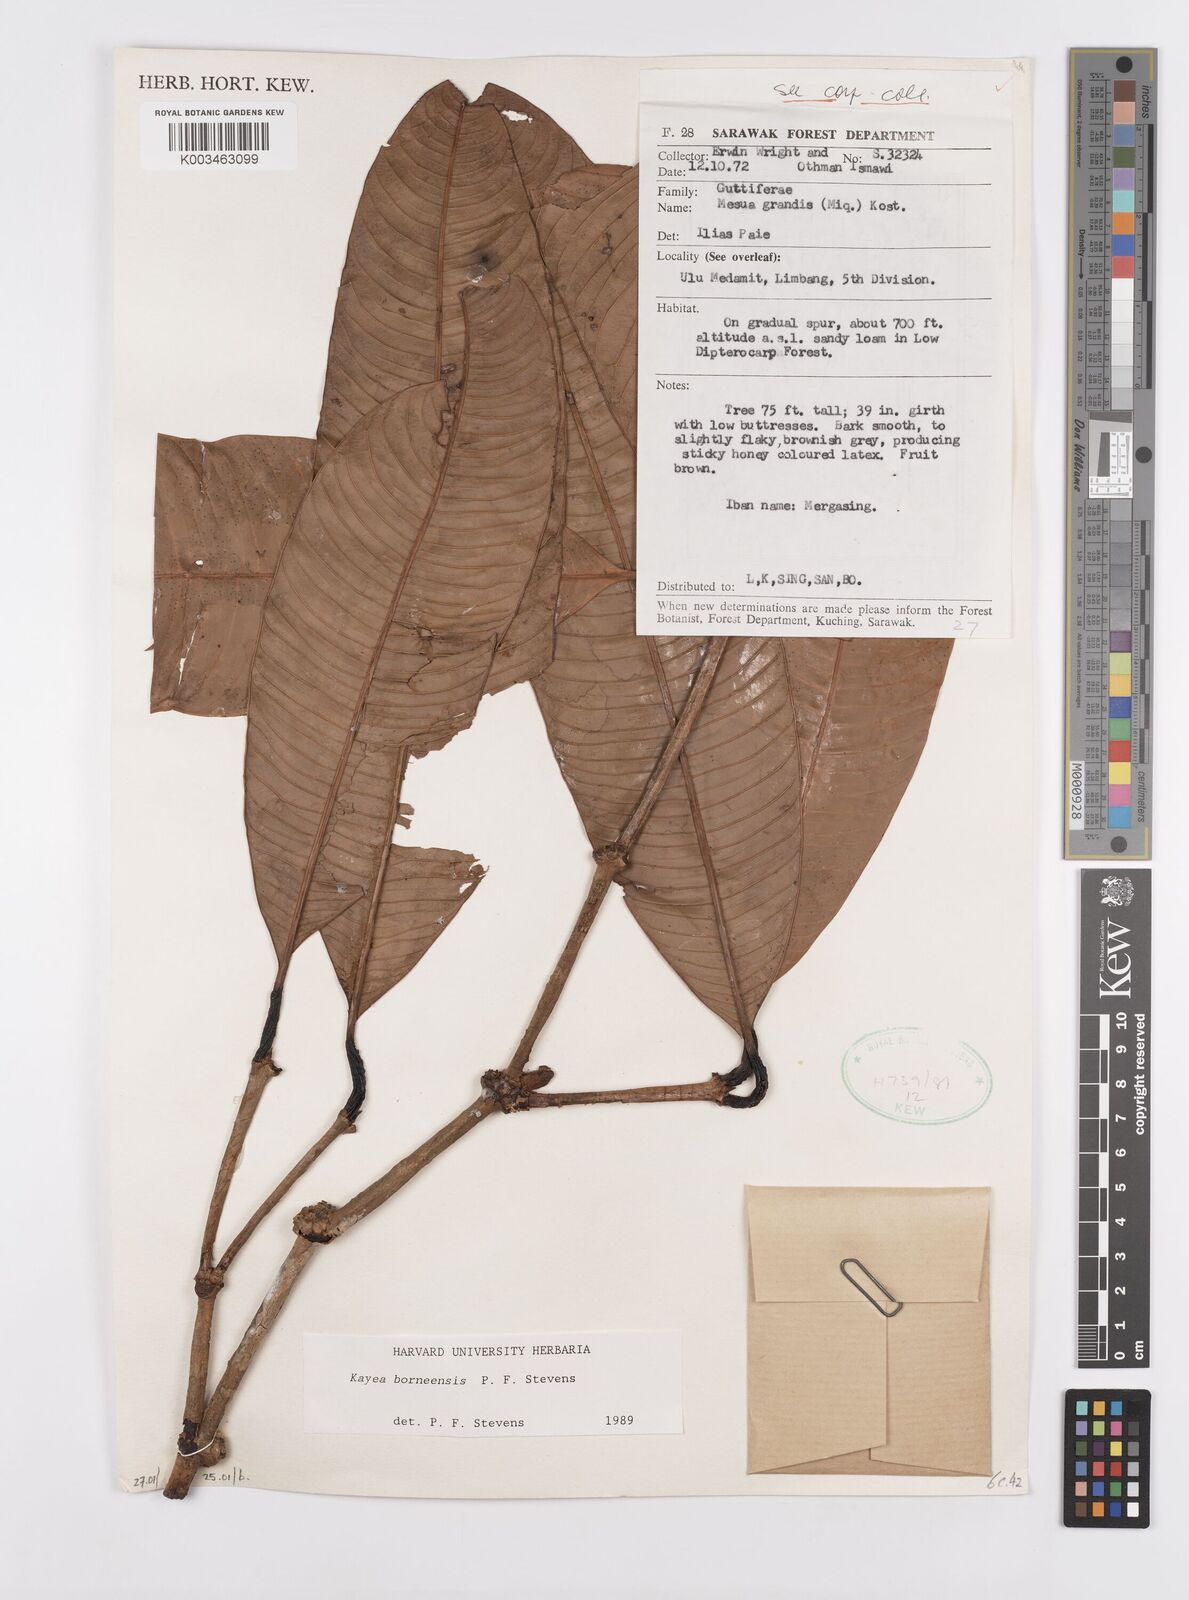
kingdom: Plantae
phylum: Tracheophyta
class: Magnoliopsida
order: Malpighiales
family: Calophyllaceae
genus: Kayea
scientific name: Kayea borneensis
